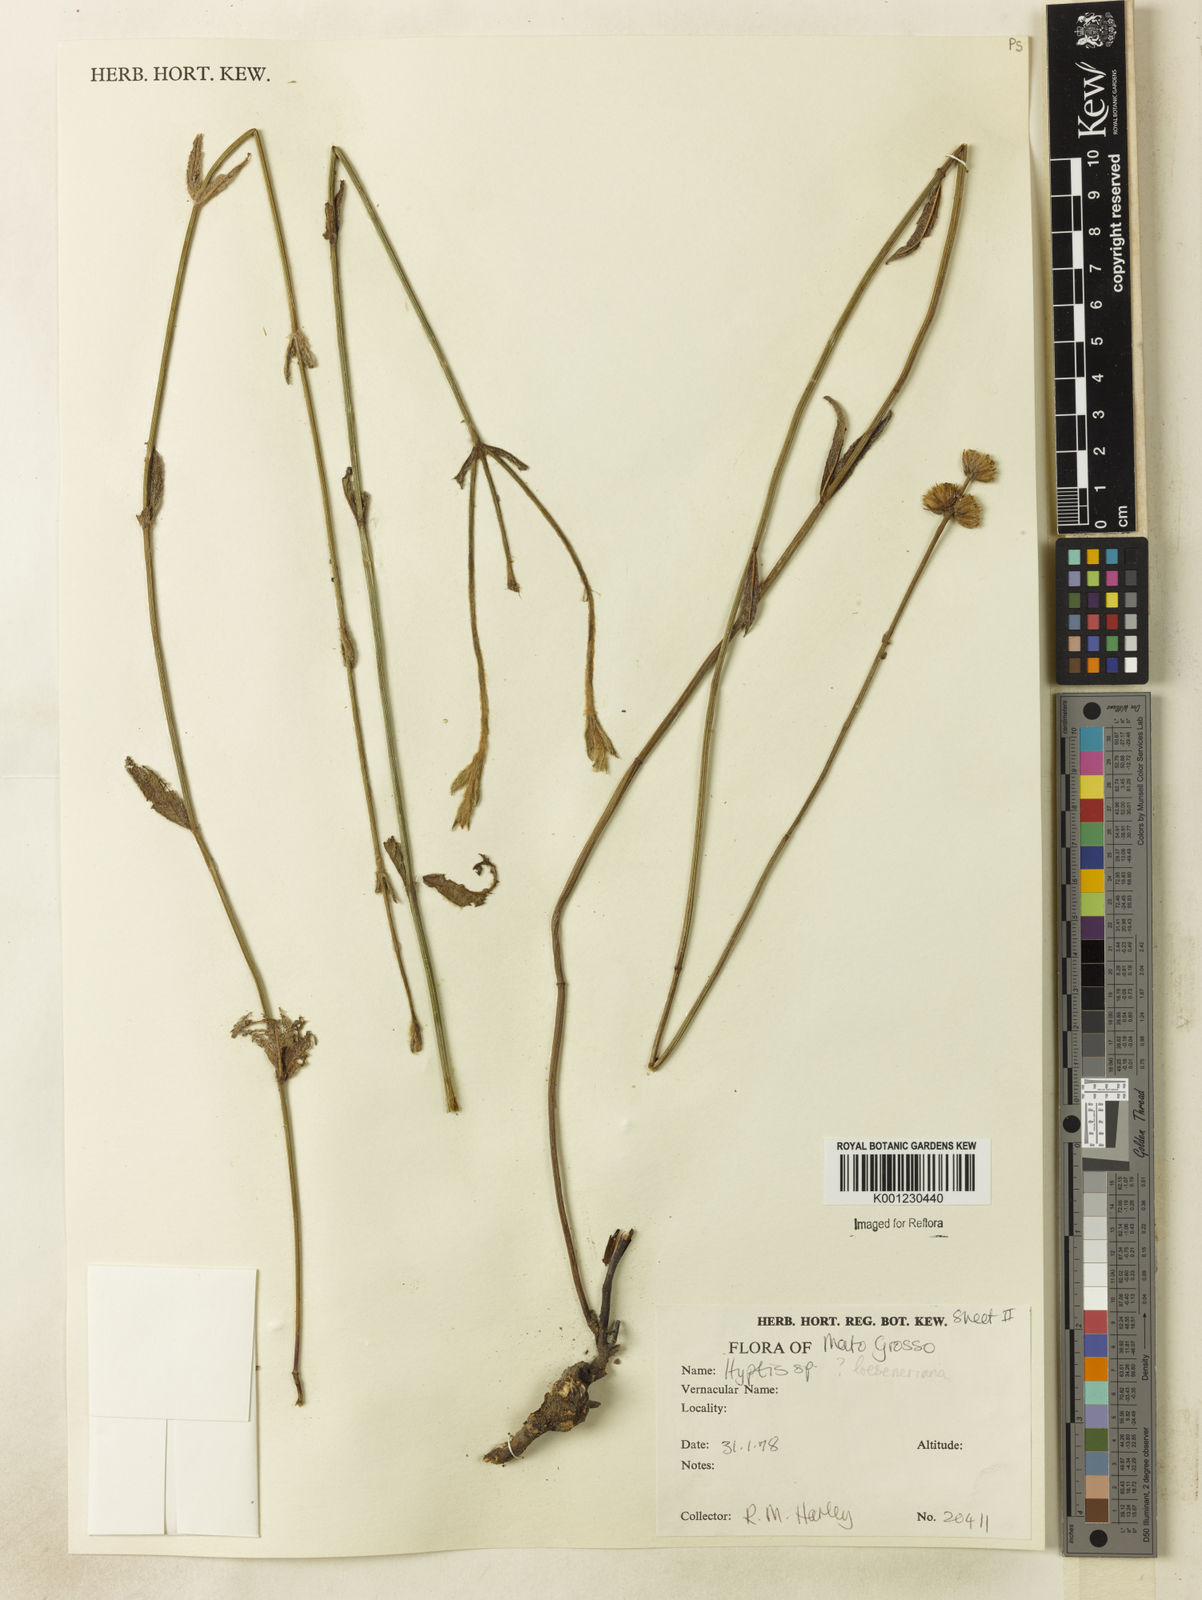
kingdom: Plantae
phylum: Tracheophyta
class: Magnoliopsida
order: Lamiales
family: Lamiaceae
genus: Hyptis
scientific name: Hyptis loeseneriana
